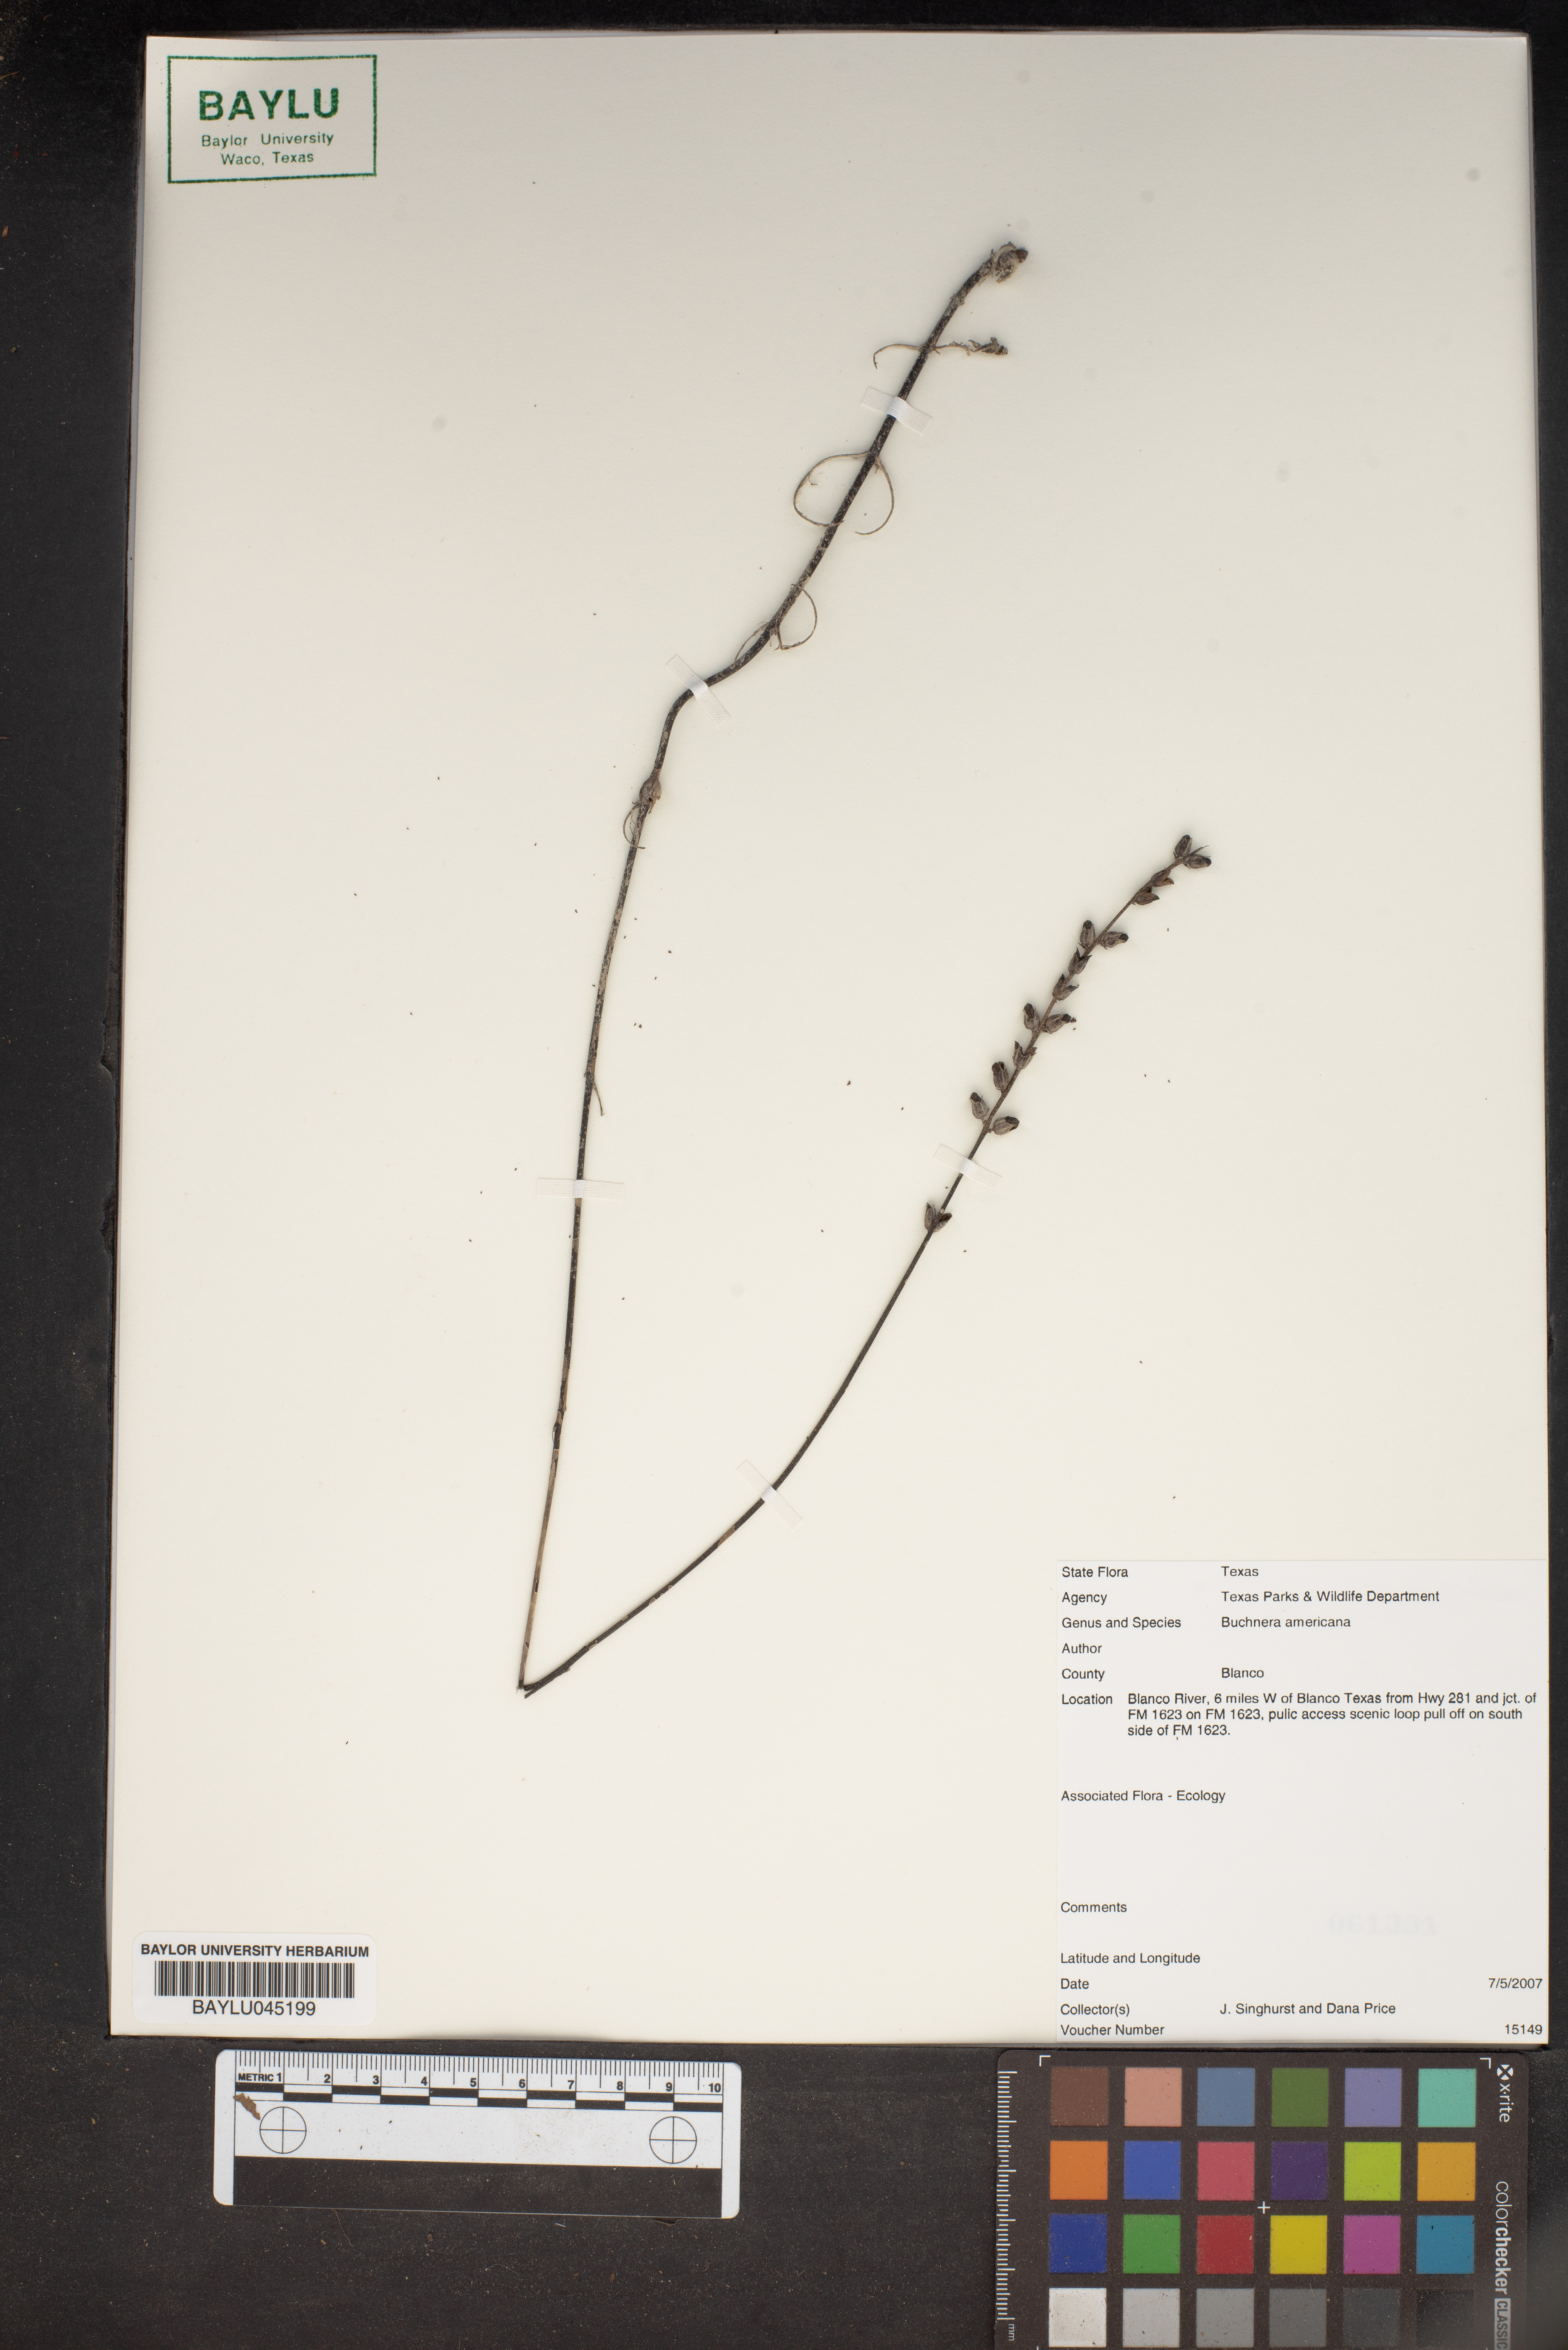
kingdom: Plantae
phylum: Tracheophyta
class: Magnoliopsida
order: Lamiales
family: Orobanchaceae
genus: Buchnera
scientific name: Buchnera americana
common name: American bluehearts
